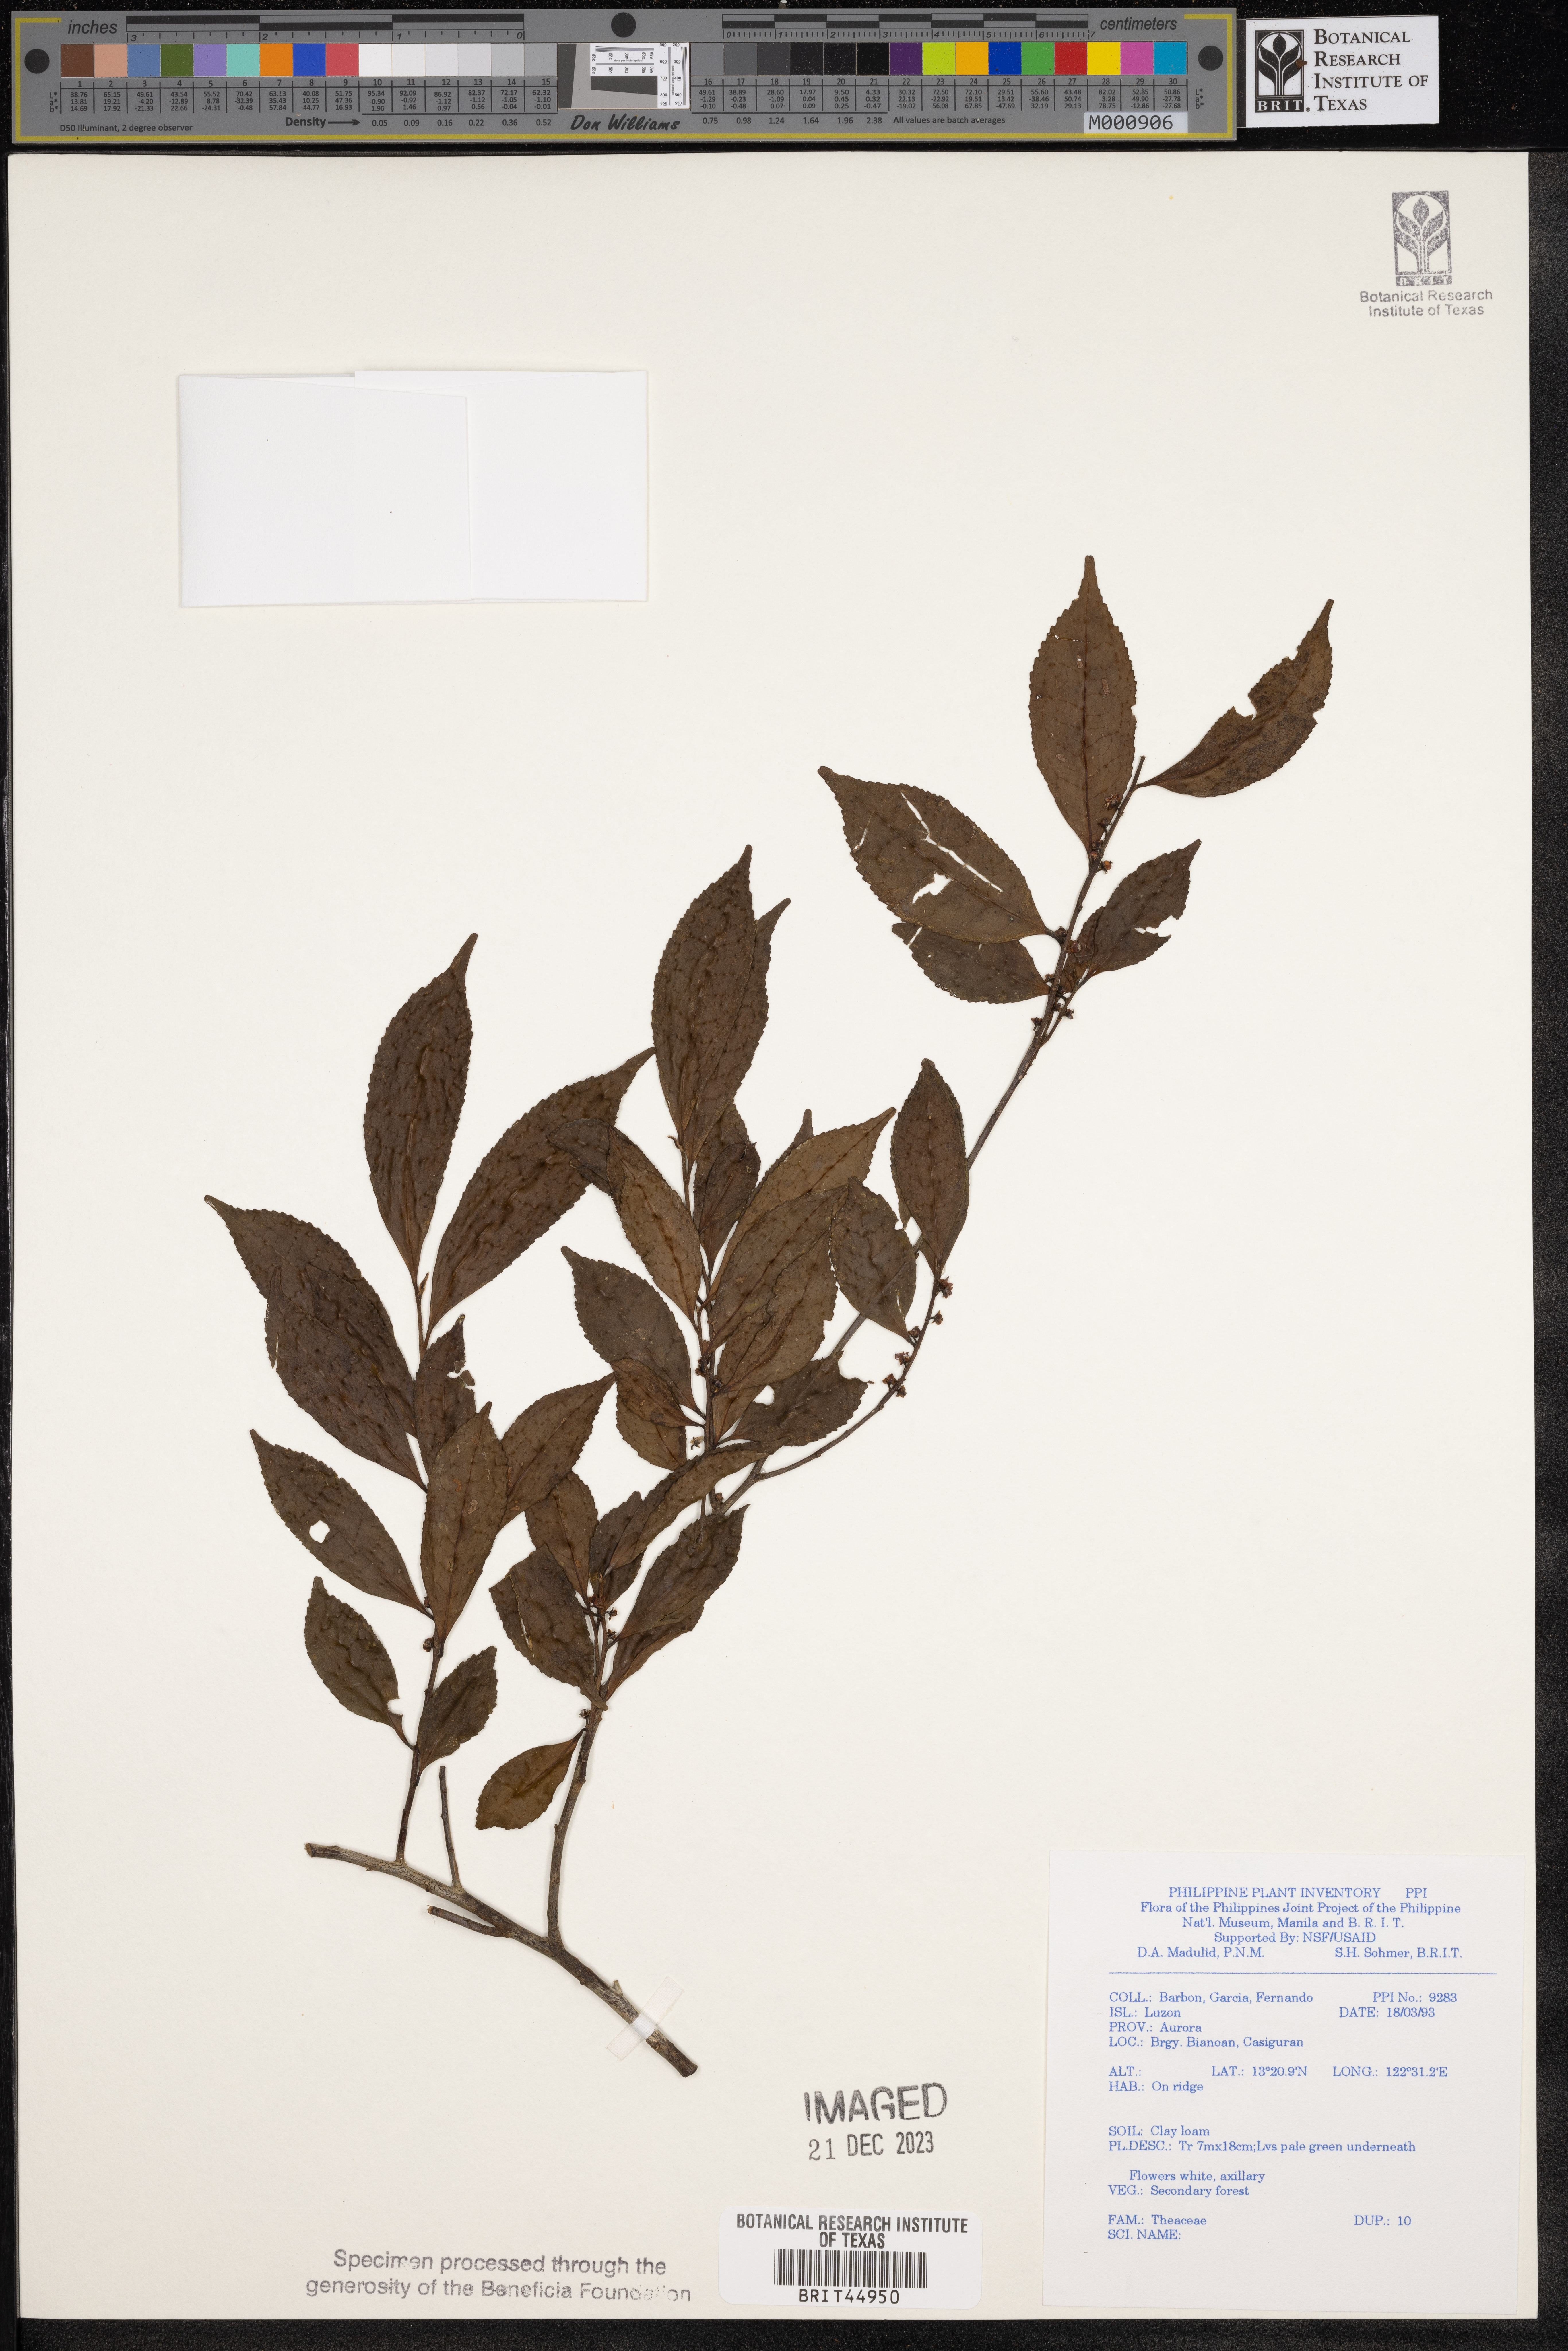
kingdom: Plantae
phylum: Tracheophyta
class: Magnoliopsida
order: Ericales
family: Theaceae
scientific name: Theaceae
